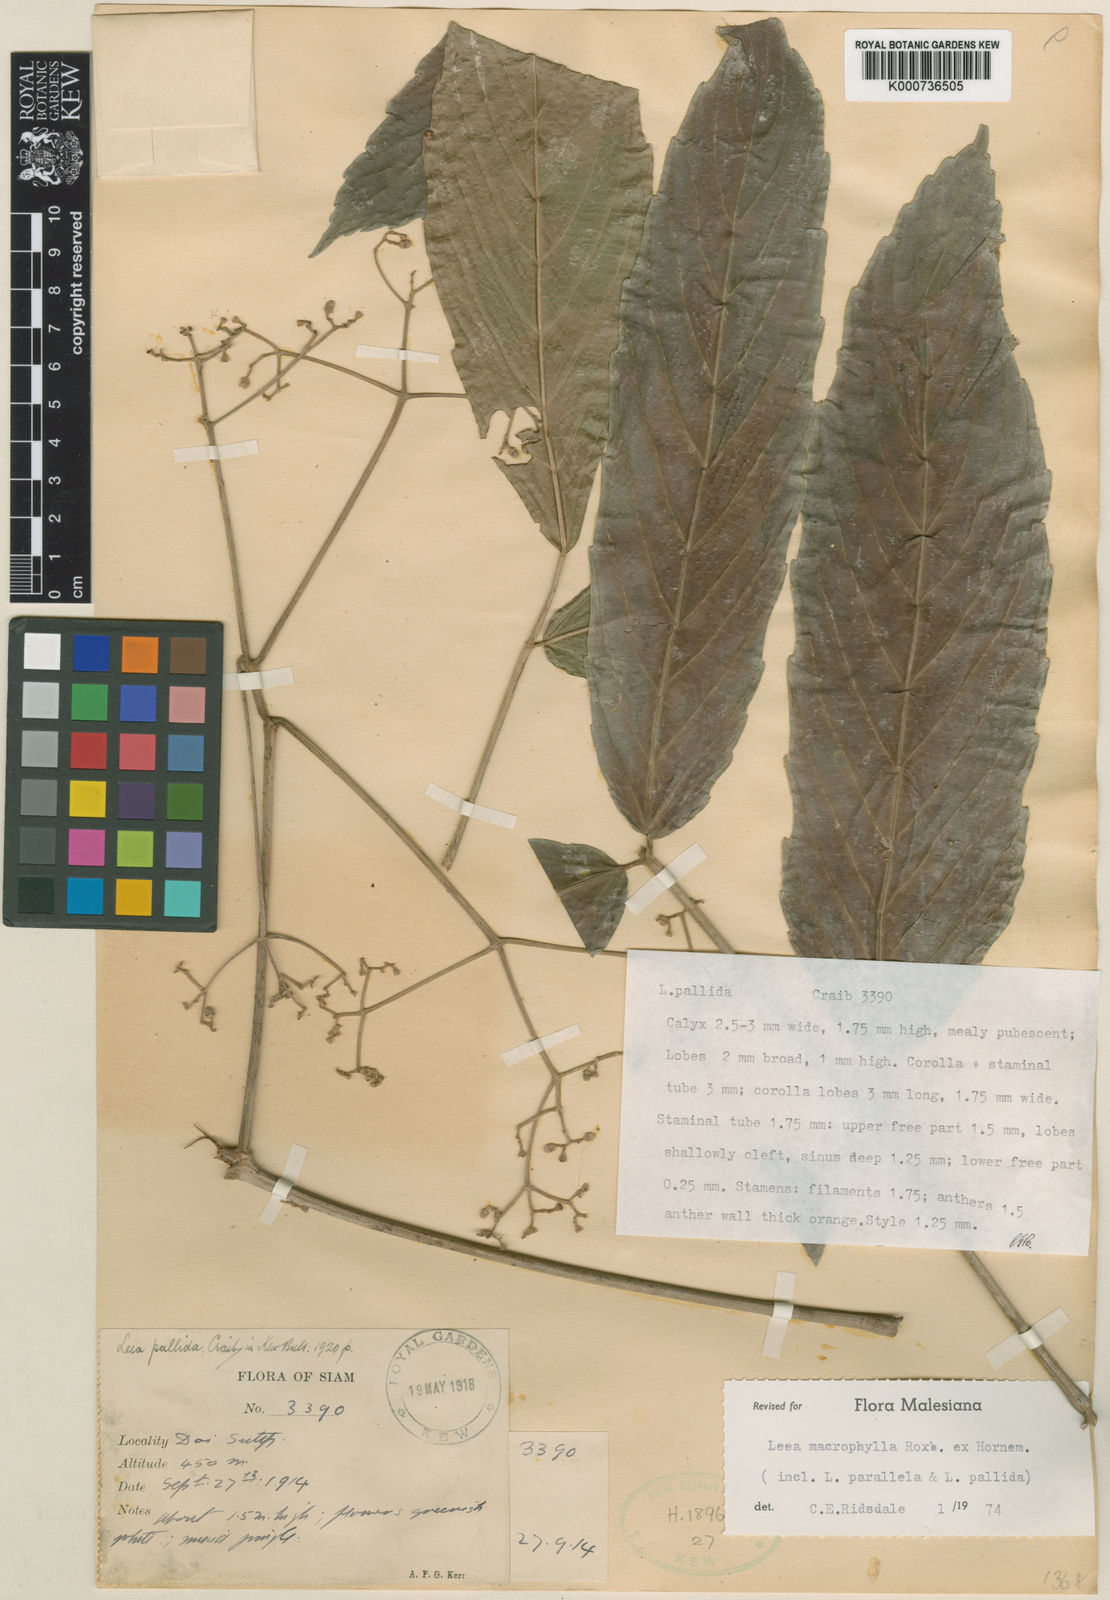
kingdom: Plantae
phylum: Tracheophyta
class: Magnoliopsida
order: Vitales
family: Vitaceae
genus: Leea
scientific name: Leea macrophylla
